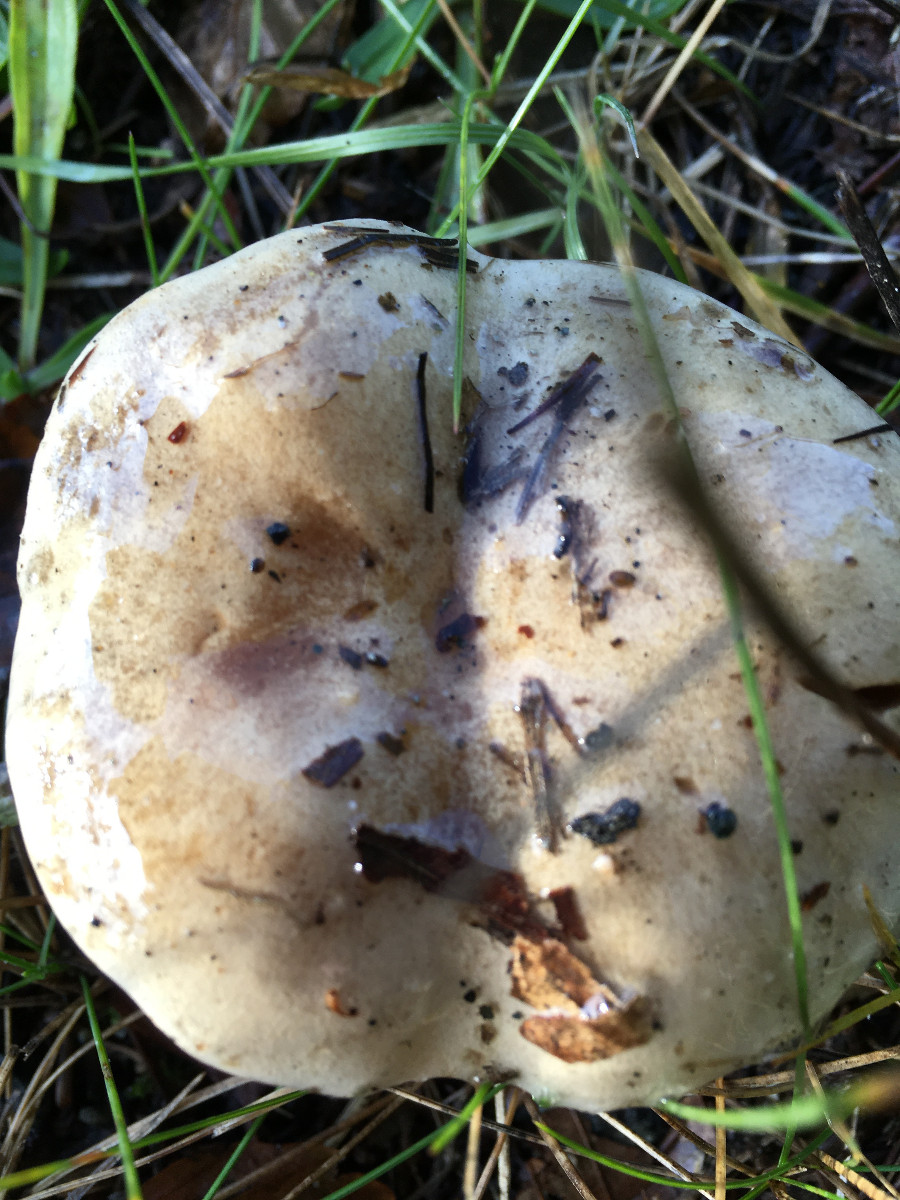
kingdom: Fungi
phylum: Basidiomycota
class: Agaricomycetes
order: Agaricales
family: Cortinariaceae
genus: Cortinarius
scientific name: Cortinarius
